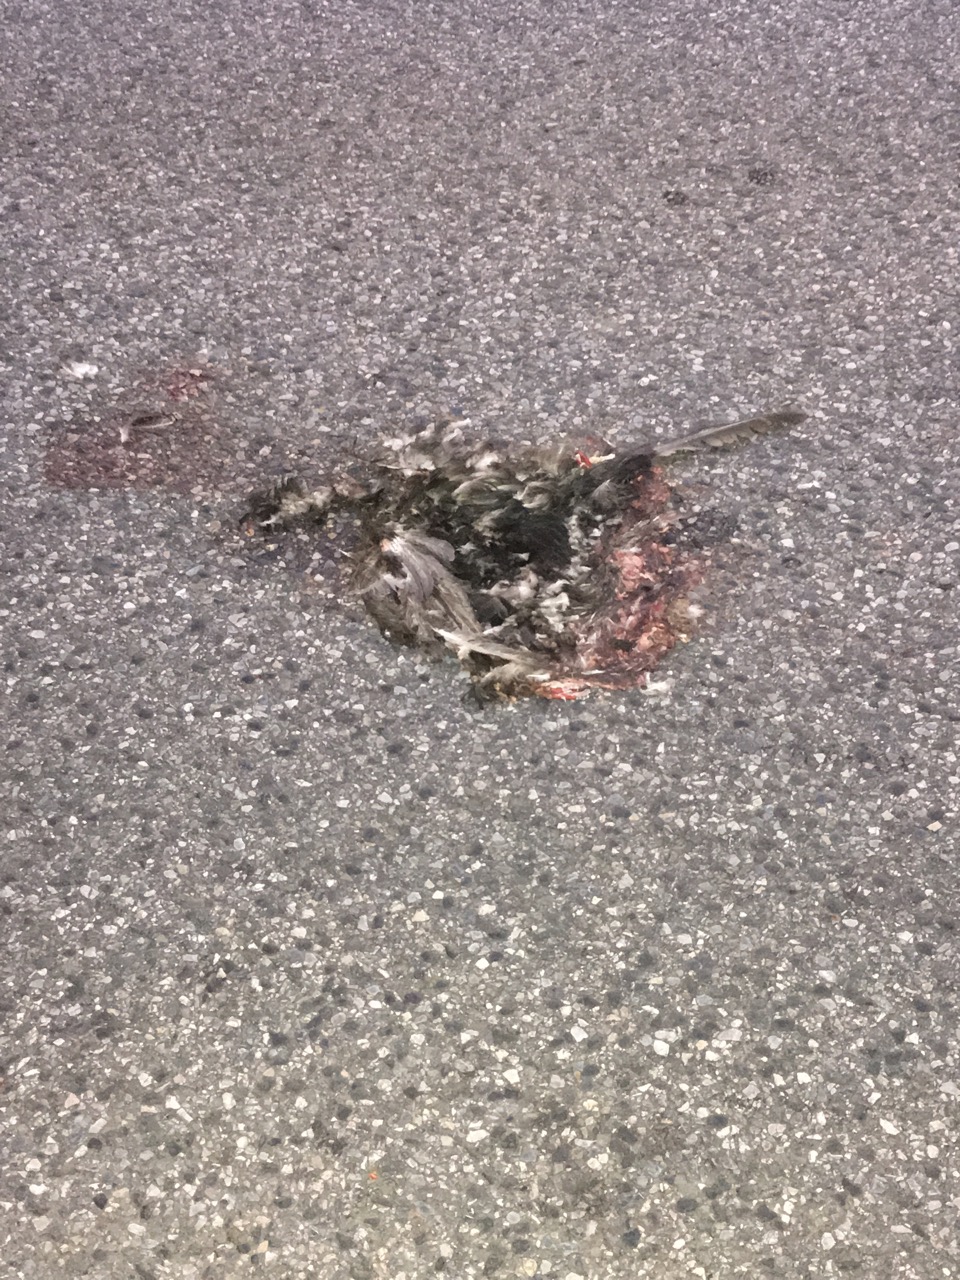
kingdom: Animalia
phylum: Chordata
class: Aves
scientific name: Aves
